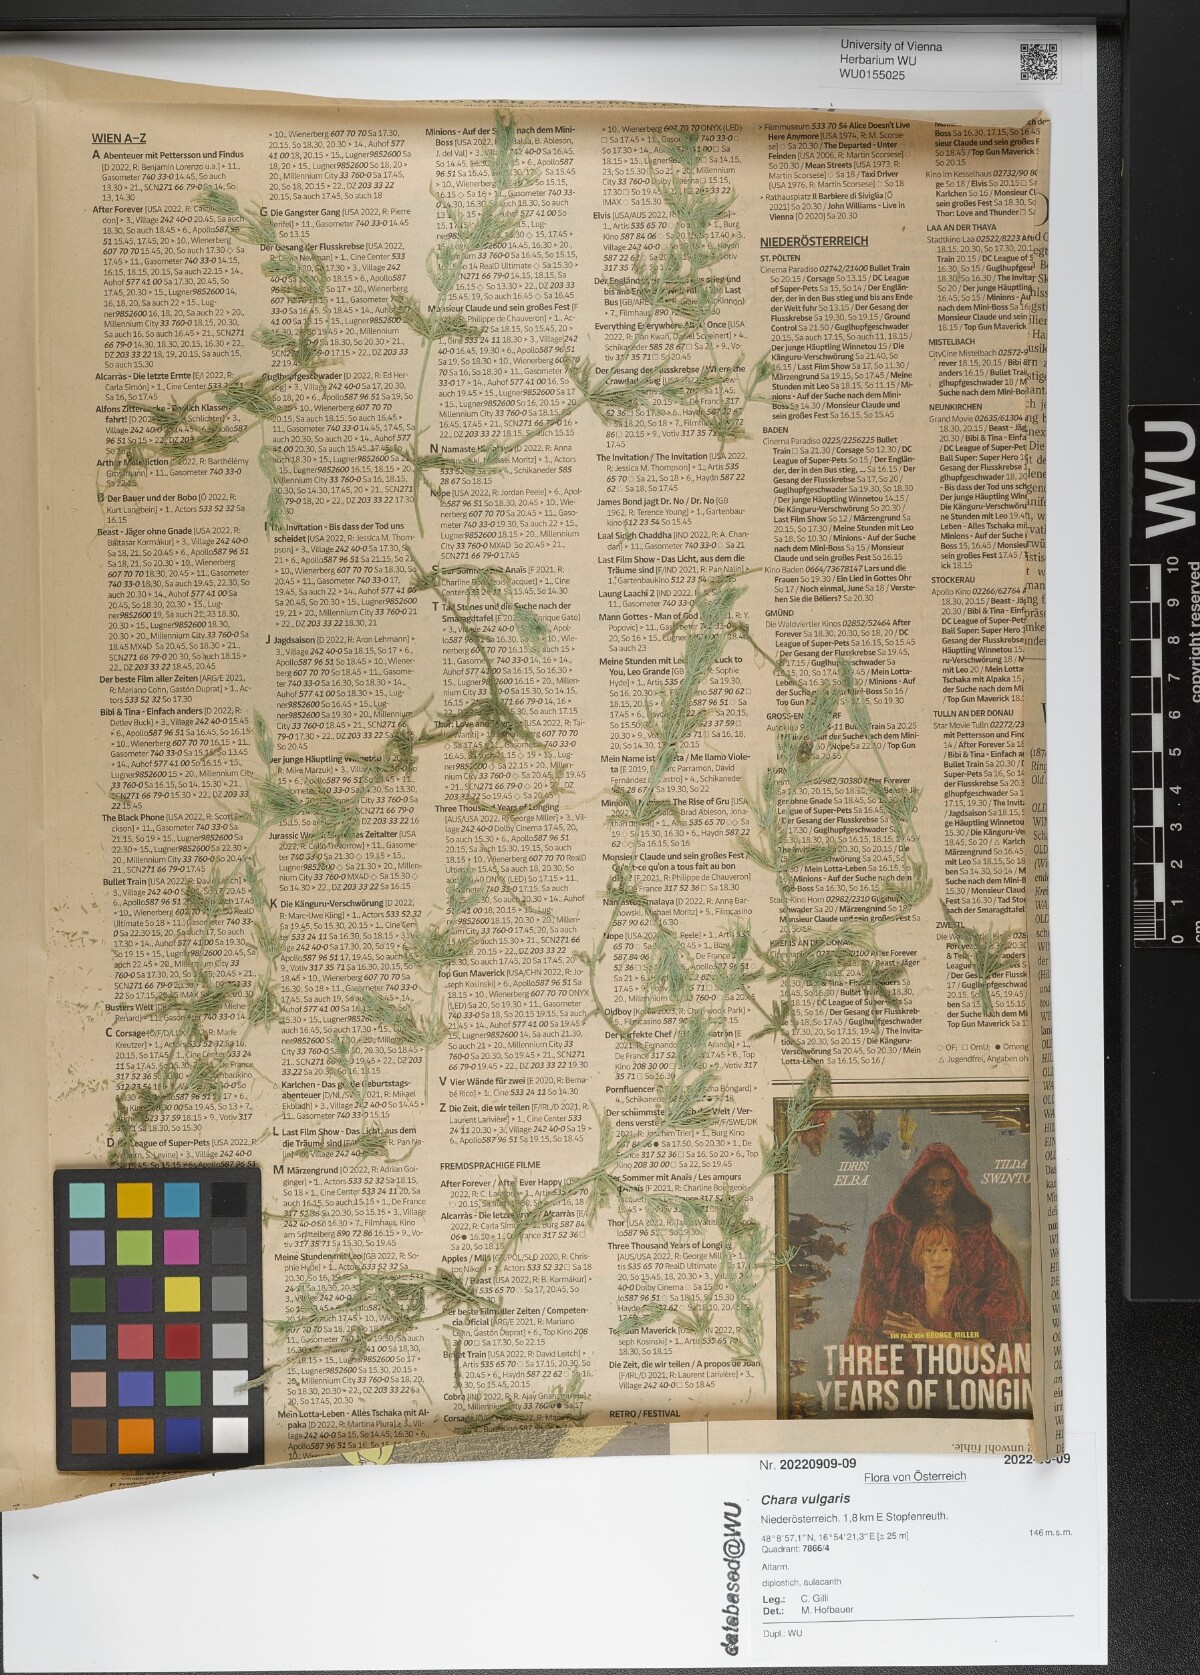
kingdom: Plantae
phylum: Charophyta
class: Charophyceae
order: Charales
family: Characeae
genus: Chara
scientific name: Chara vulgaris
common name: Common stonewort
